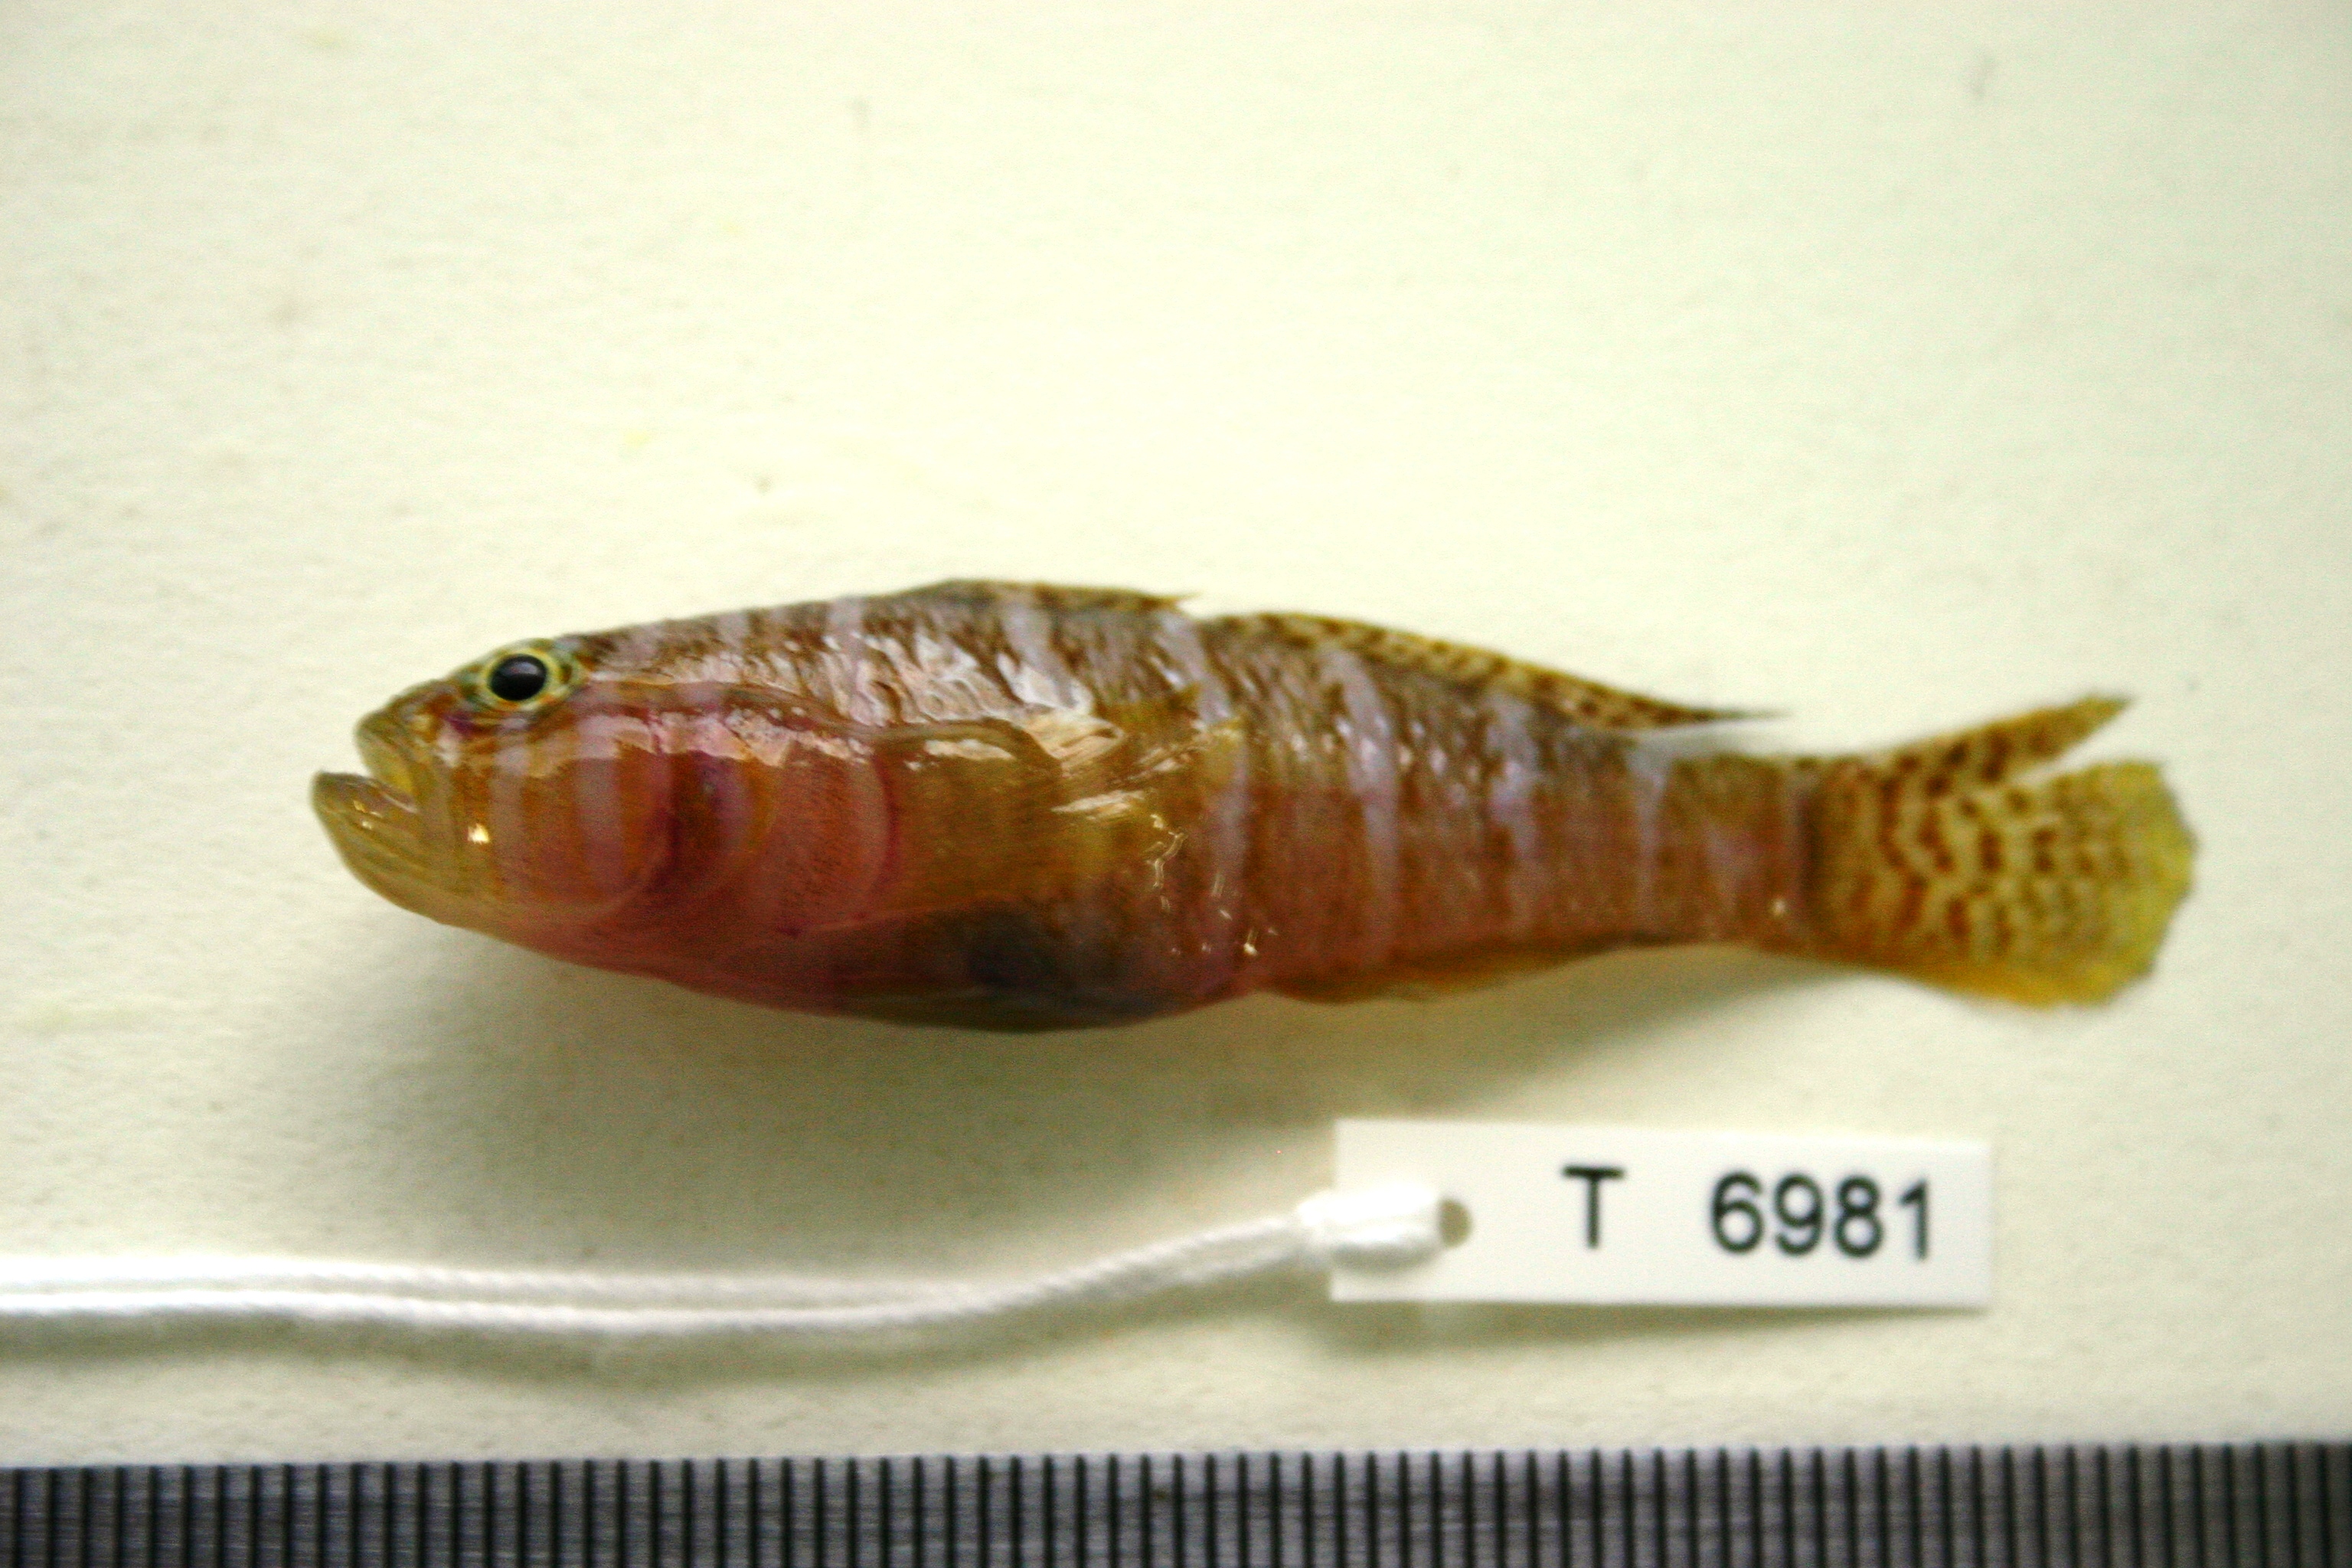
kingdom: Animalia
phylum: Chordata
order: Perciformes
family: Gobiidae
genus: Priolepis
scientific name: Priolepis cincta
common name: Banded reef-goby
